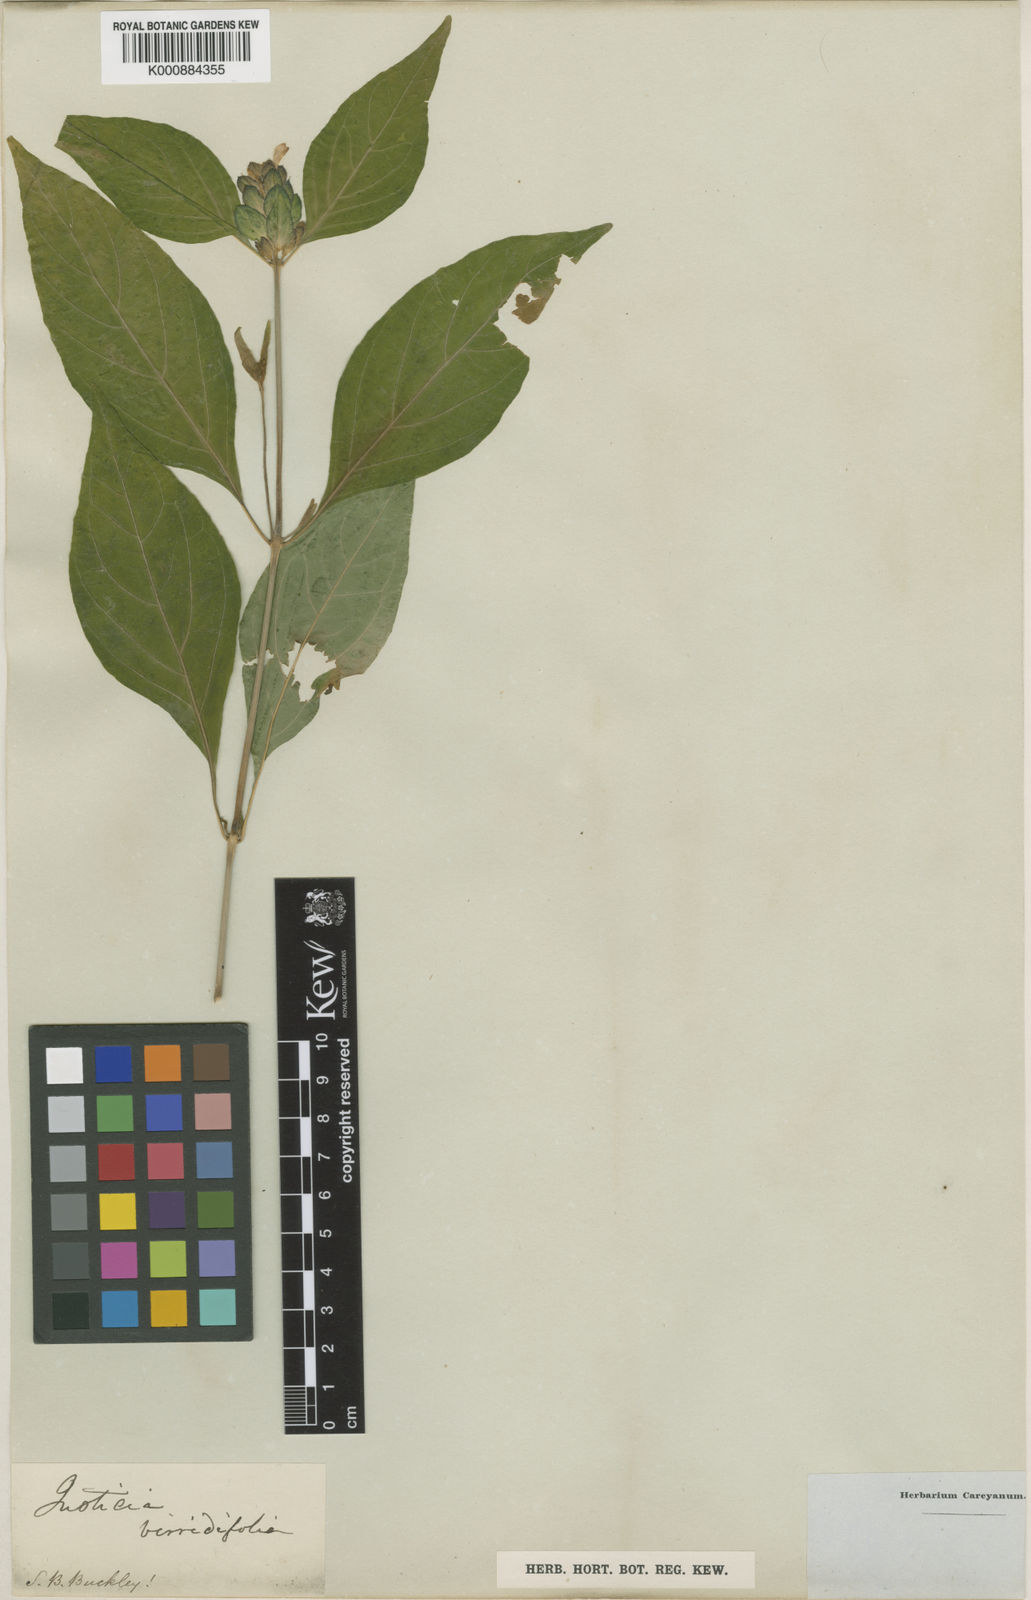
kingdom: Plantae
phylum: Tracheophyta
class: Magnoliopsida
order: Lamiales
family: Acanthaceae
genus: Yeatesia
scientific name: Yeatesia viridiflora
